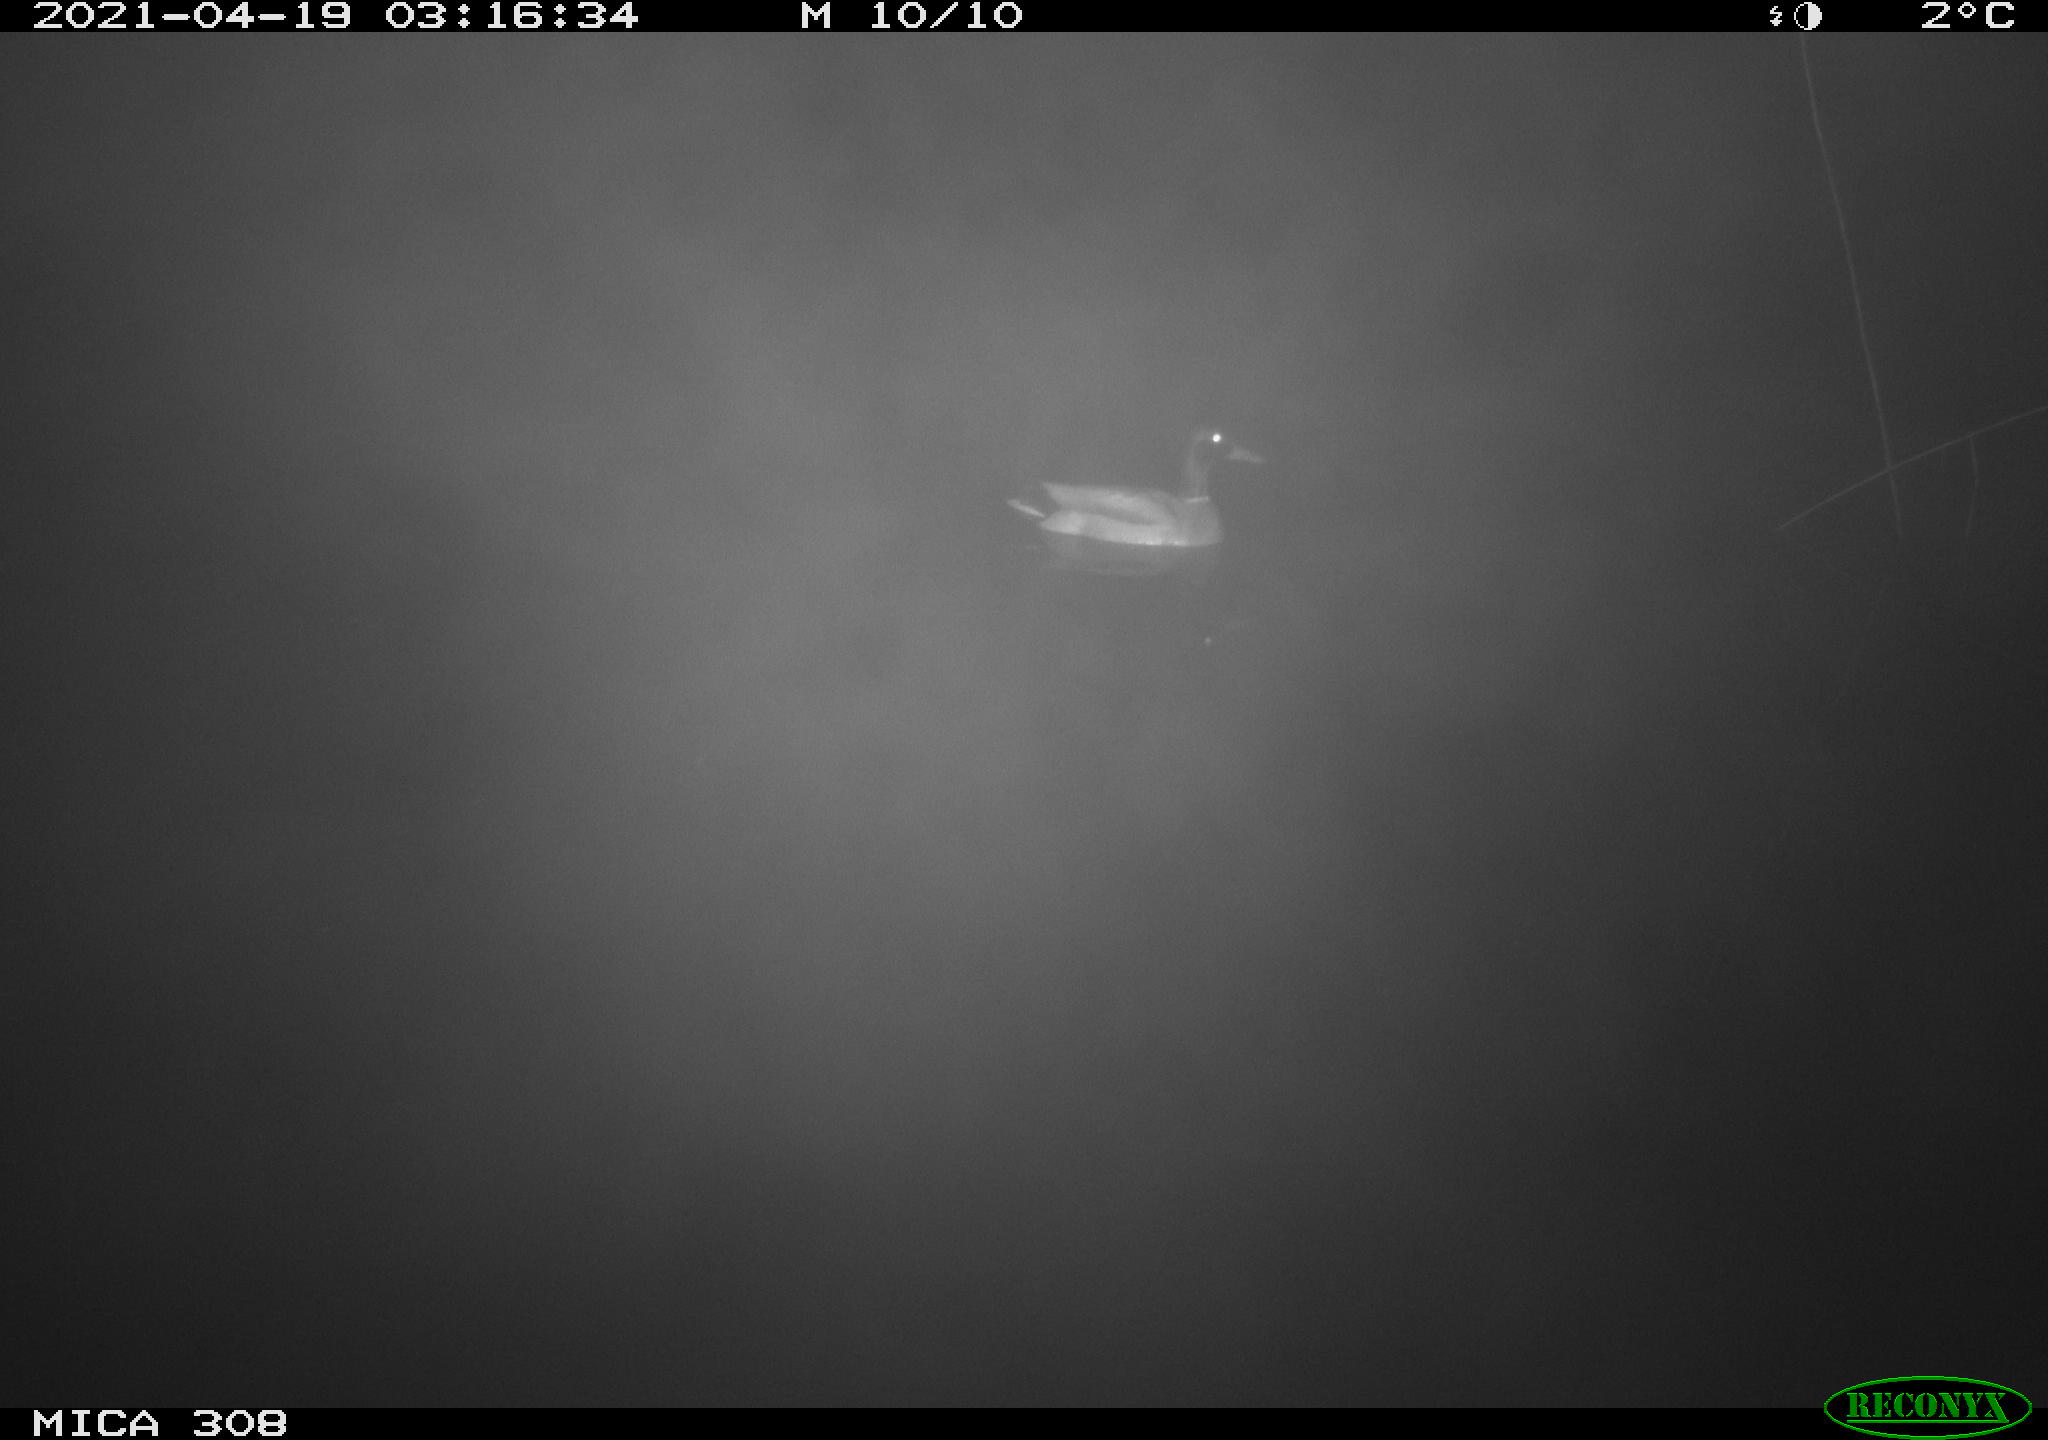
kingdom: Animalia
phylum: Chordata
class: Aves
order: Anseriformes
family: Anatidae
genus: Anas
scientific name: Anas platyrhynchos
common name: Mallard
